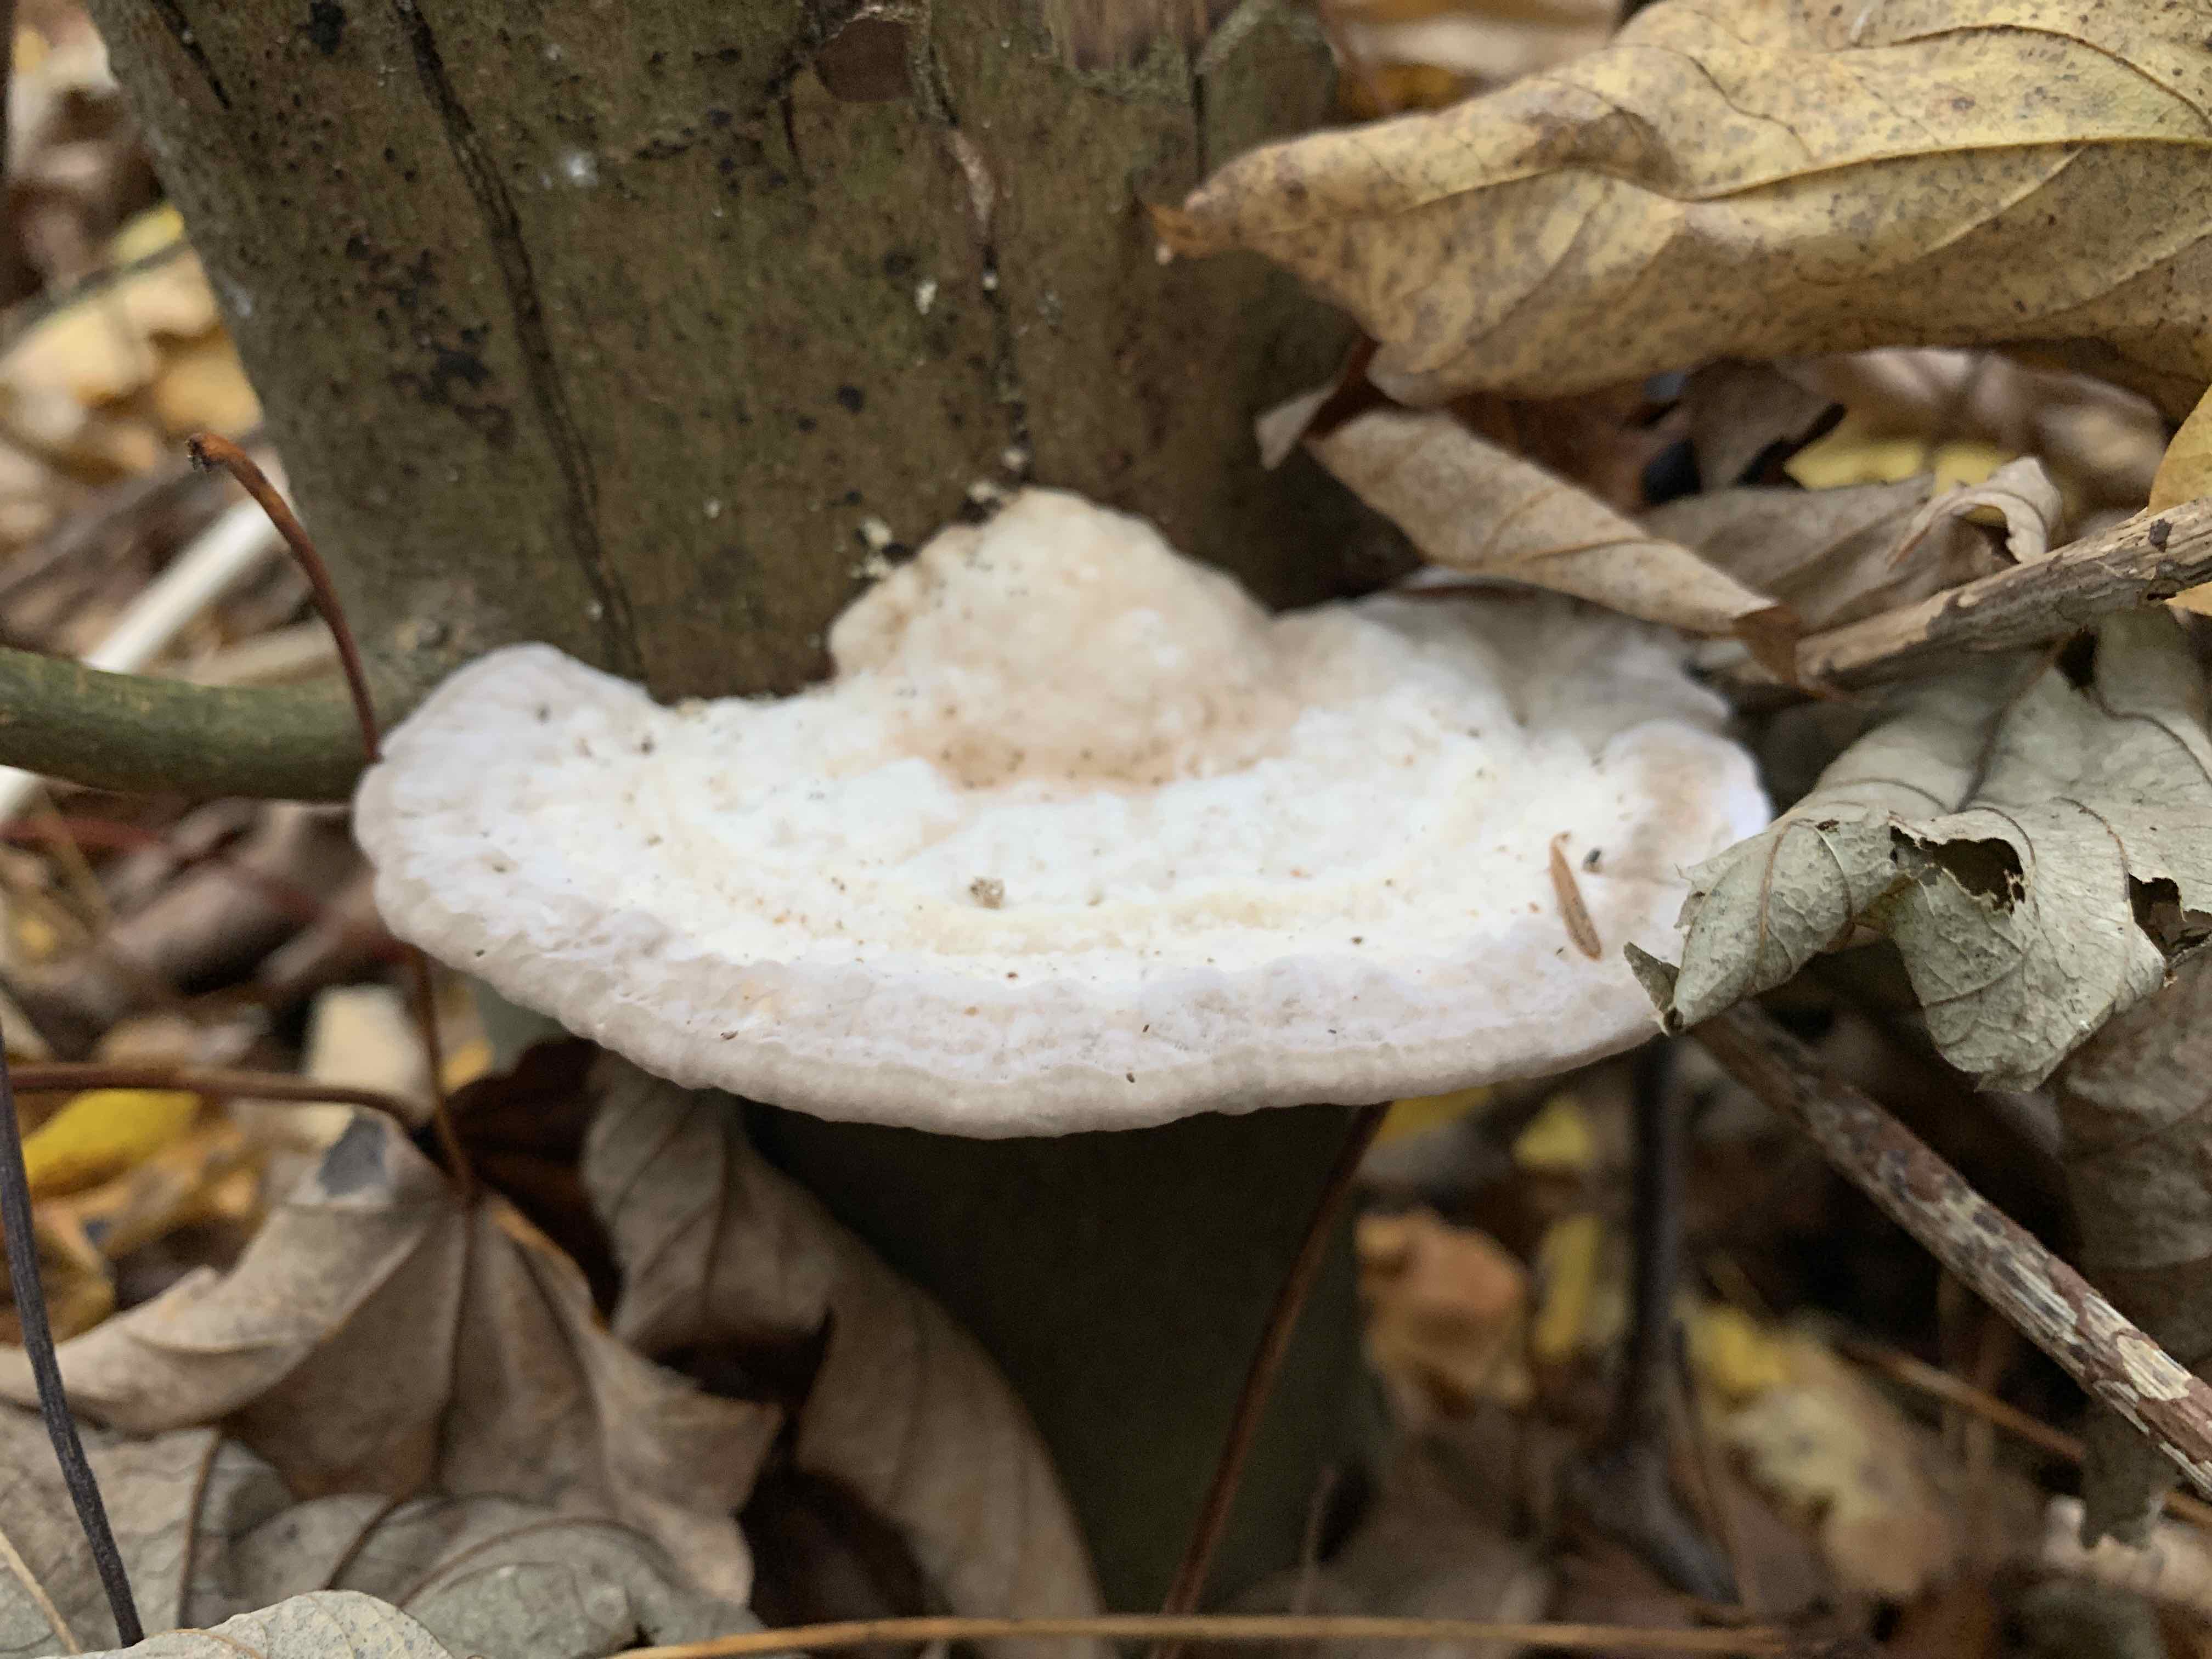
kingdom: Fungi
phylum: Basidiomycota
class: Agaricomycetes
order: Polyporales
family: Polyporaceae
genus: Trametes
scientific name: Trametes gibbosa
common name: puklet læderporesvamp
